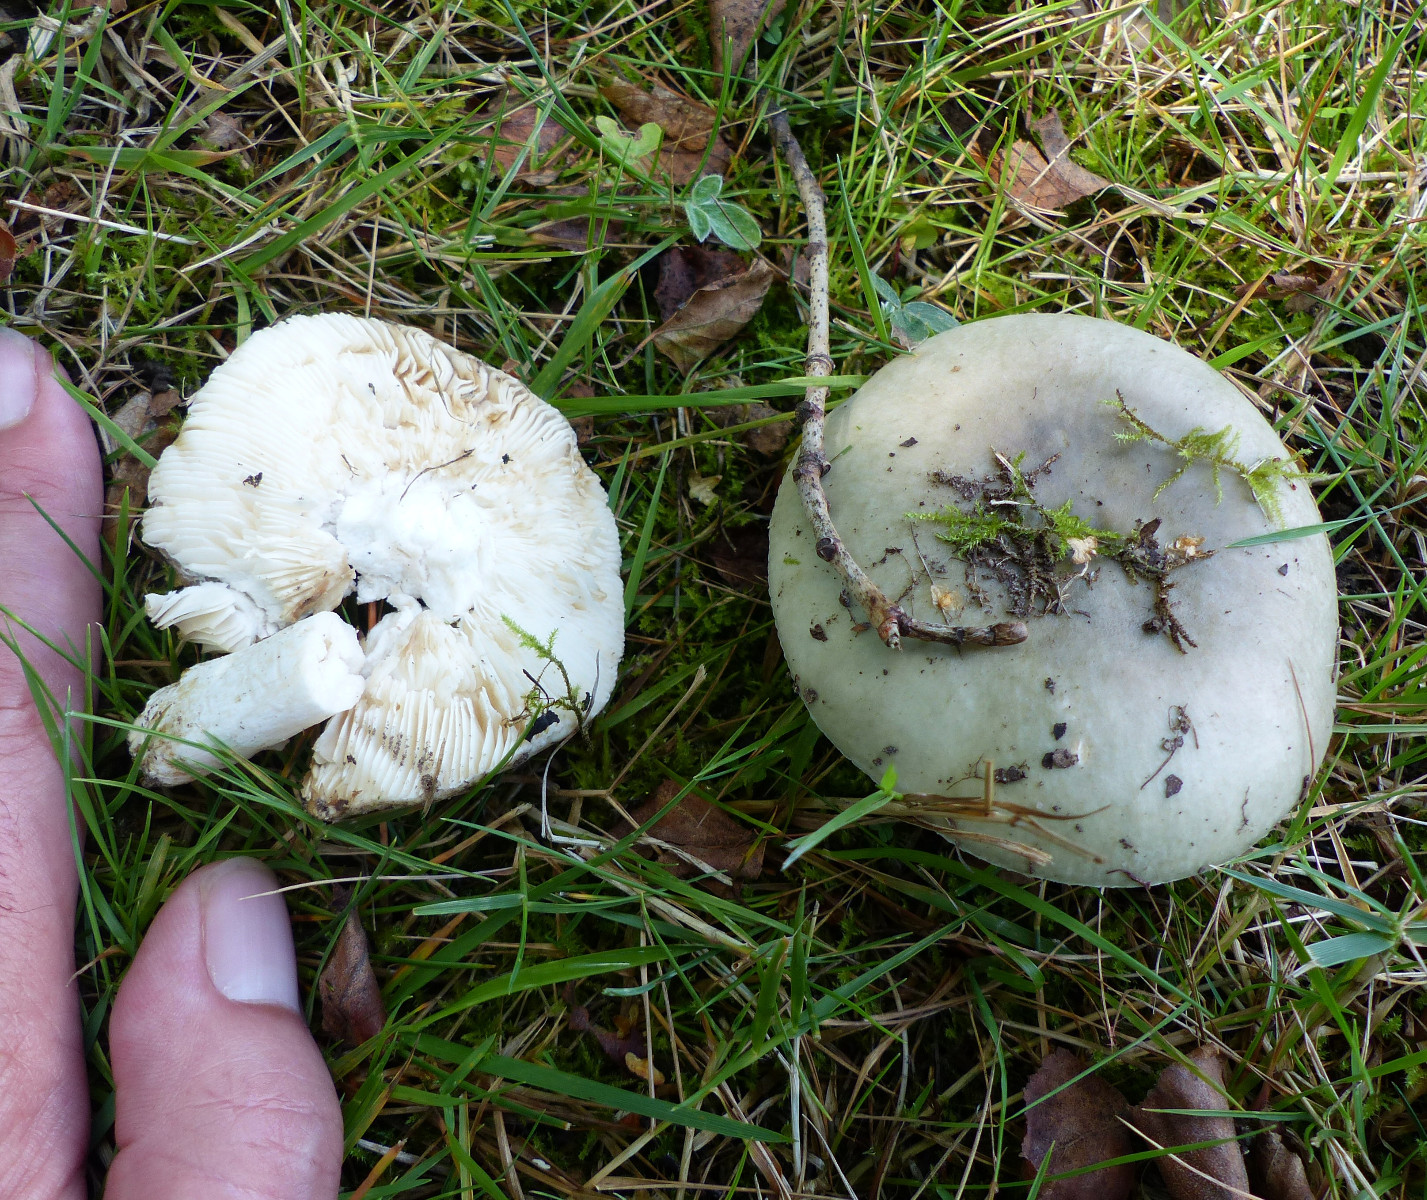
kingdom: Fungi
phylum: Basidiomycota
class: Agaricomycetes
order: Russulales
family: Russulaceae
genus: Russula
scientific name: Russula aeruginea
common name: græsgrøn skørhat
